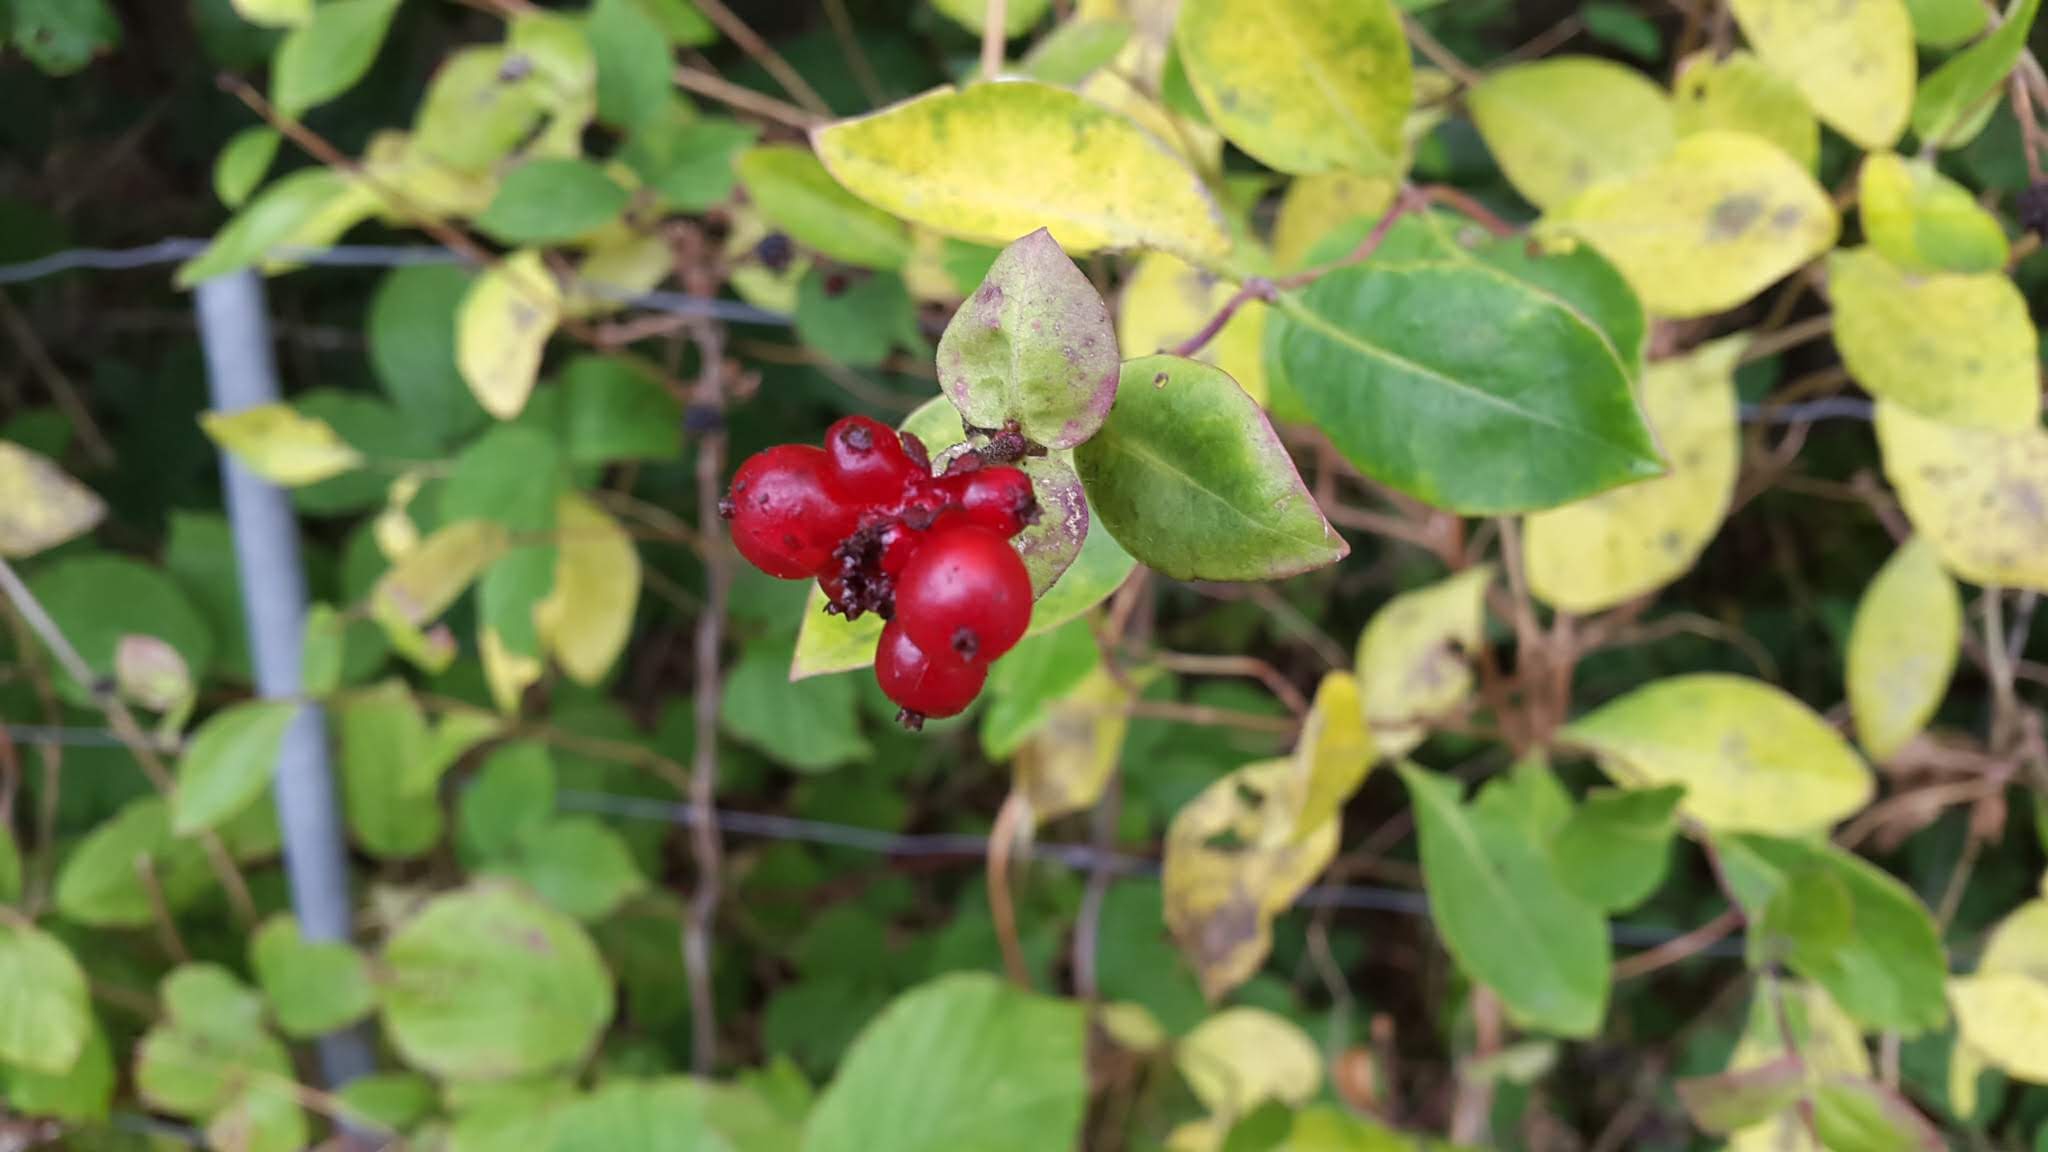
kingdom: Plantae
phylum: Tracheophyta
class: Magnoliopsida
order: Dipsacales
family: Caprifoliaceae
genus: Lonicera
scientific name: Lonicera periclymenum
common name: Almindelig gedeblad
